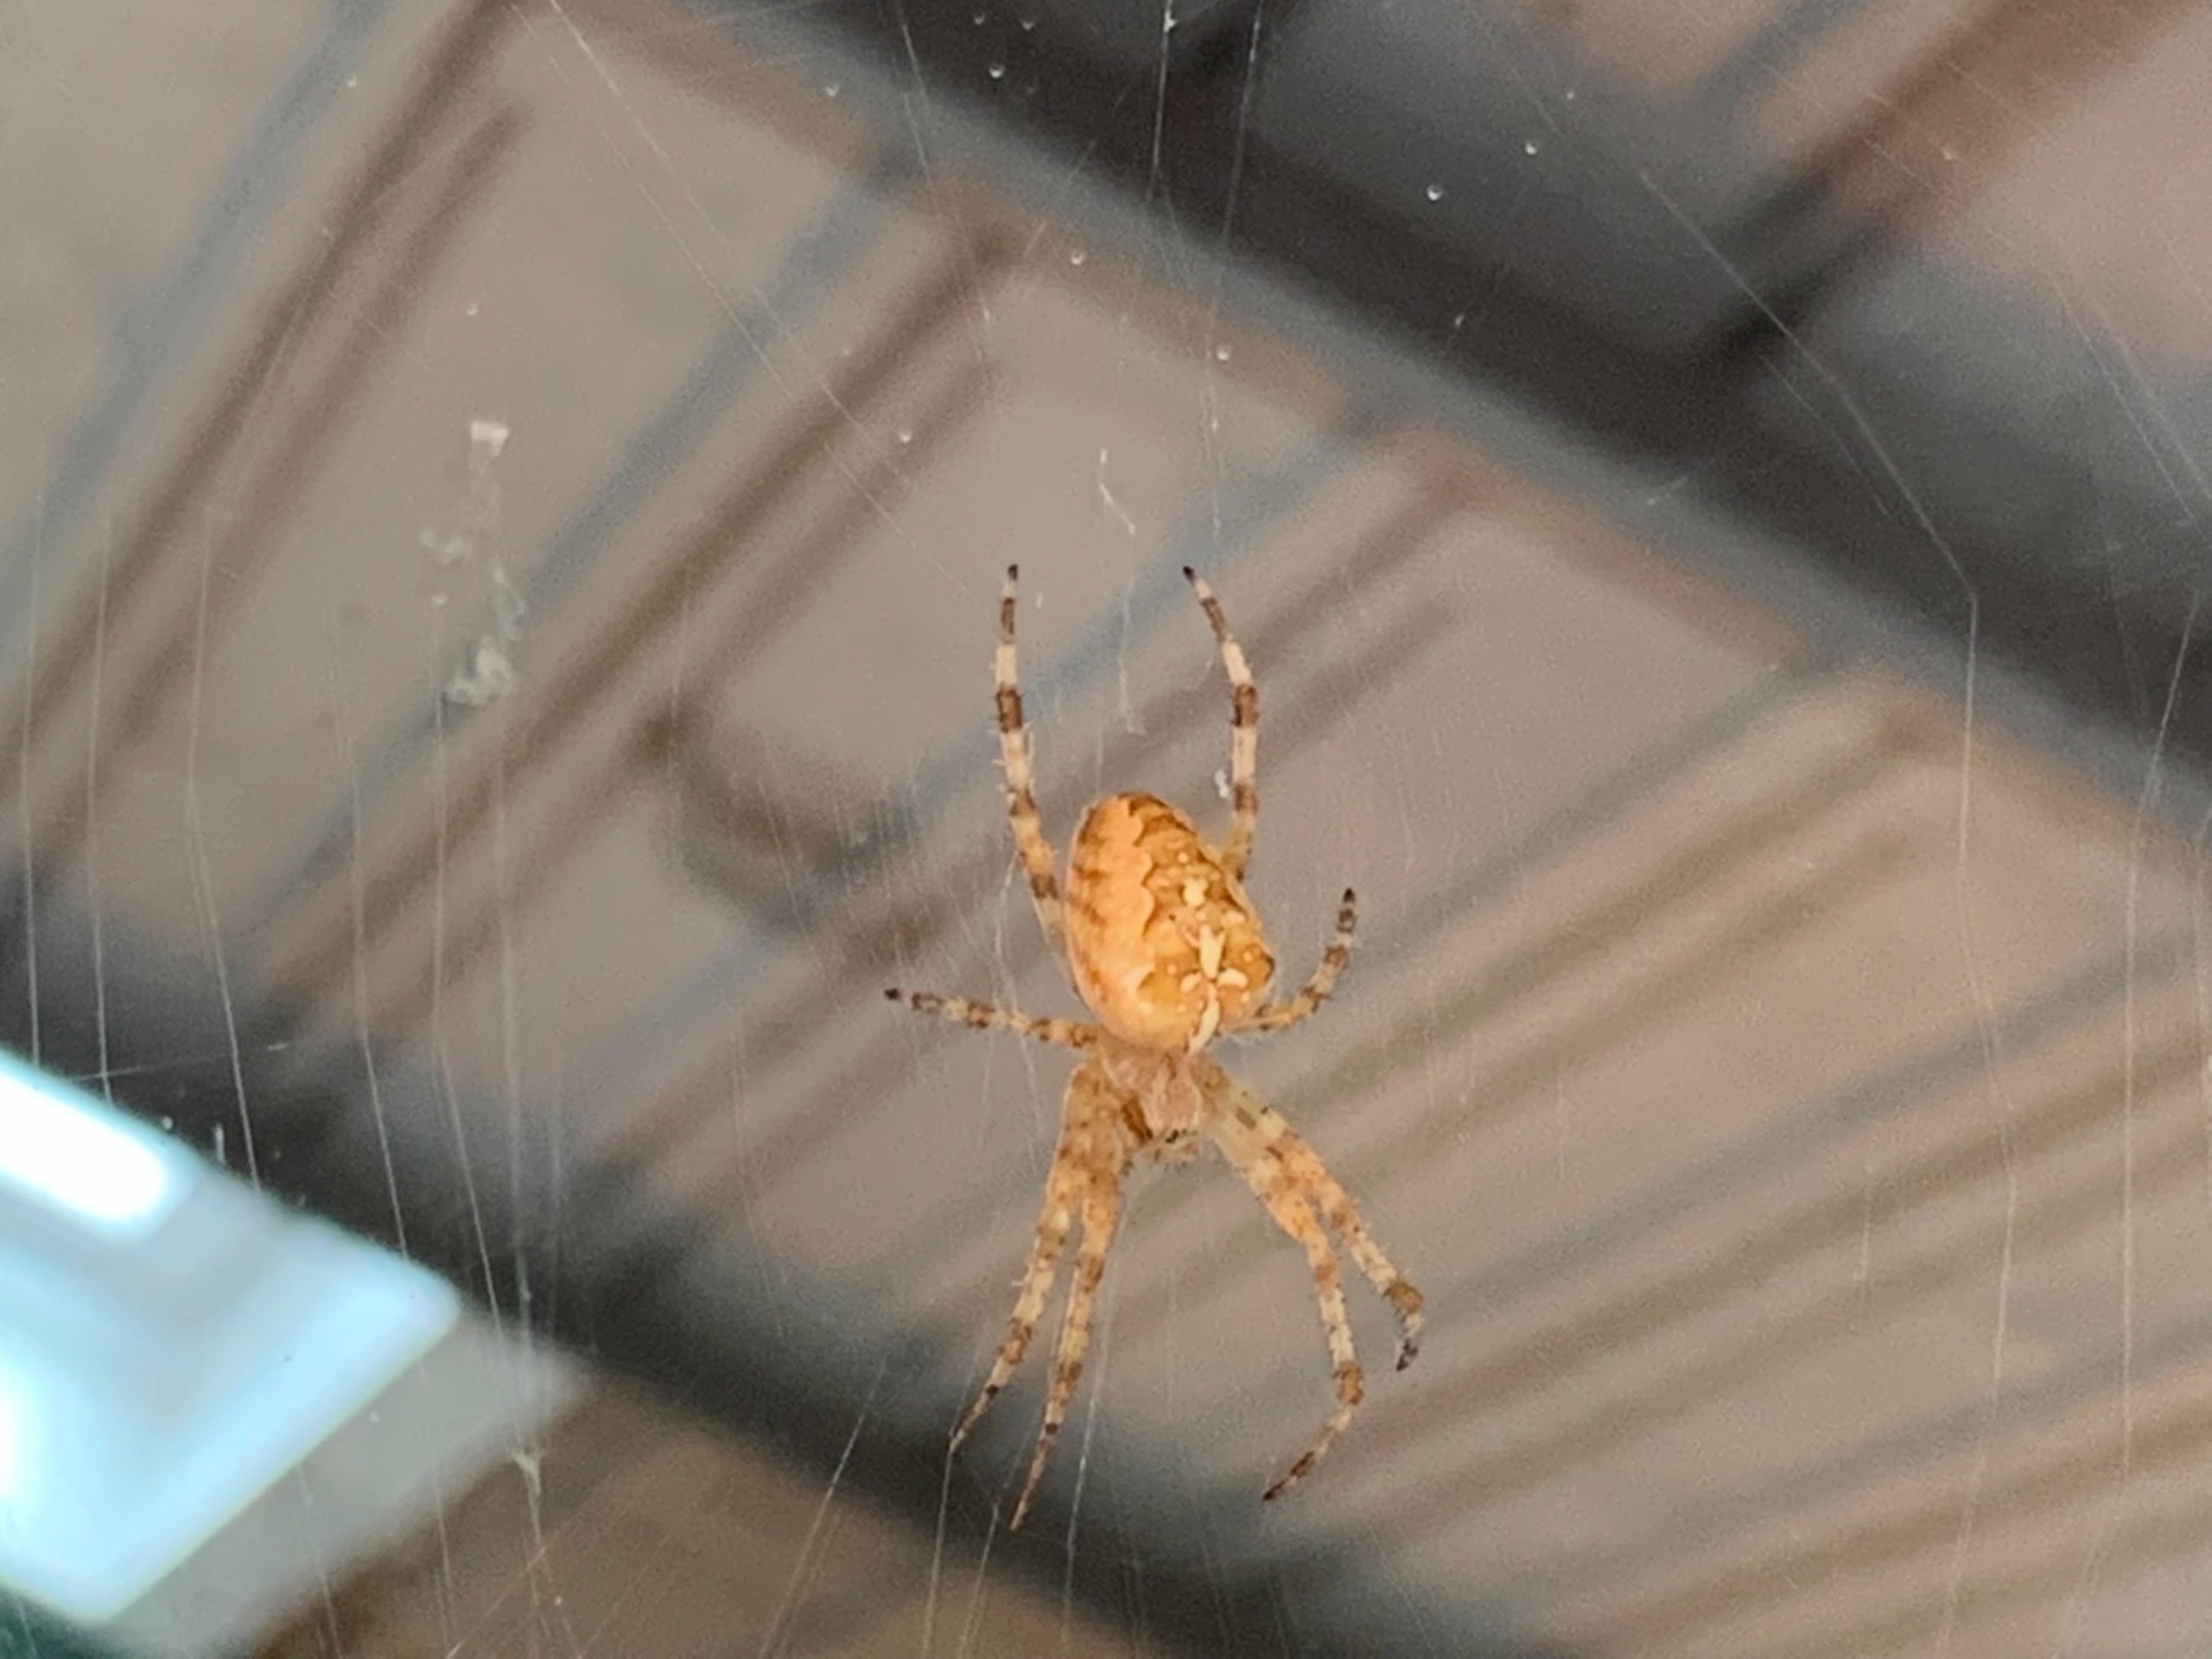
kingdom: Animalia
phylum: Arthropoda
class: Arachnida
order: Araneae
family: Araneidae
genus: Araneus
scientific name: Araneus diadematus
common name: Korsedderkop
